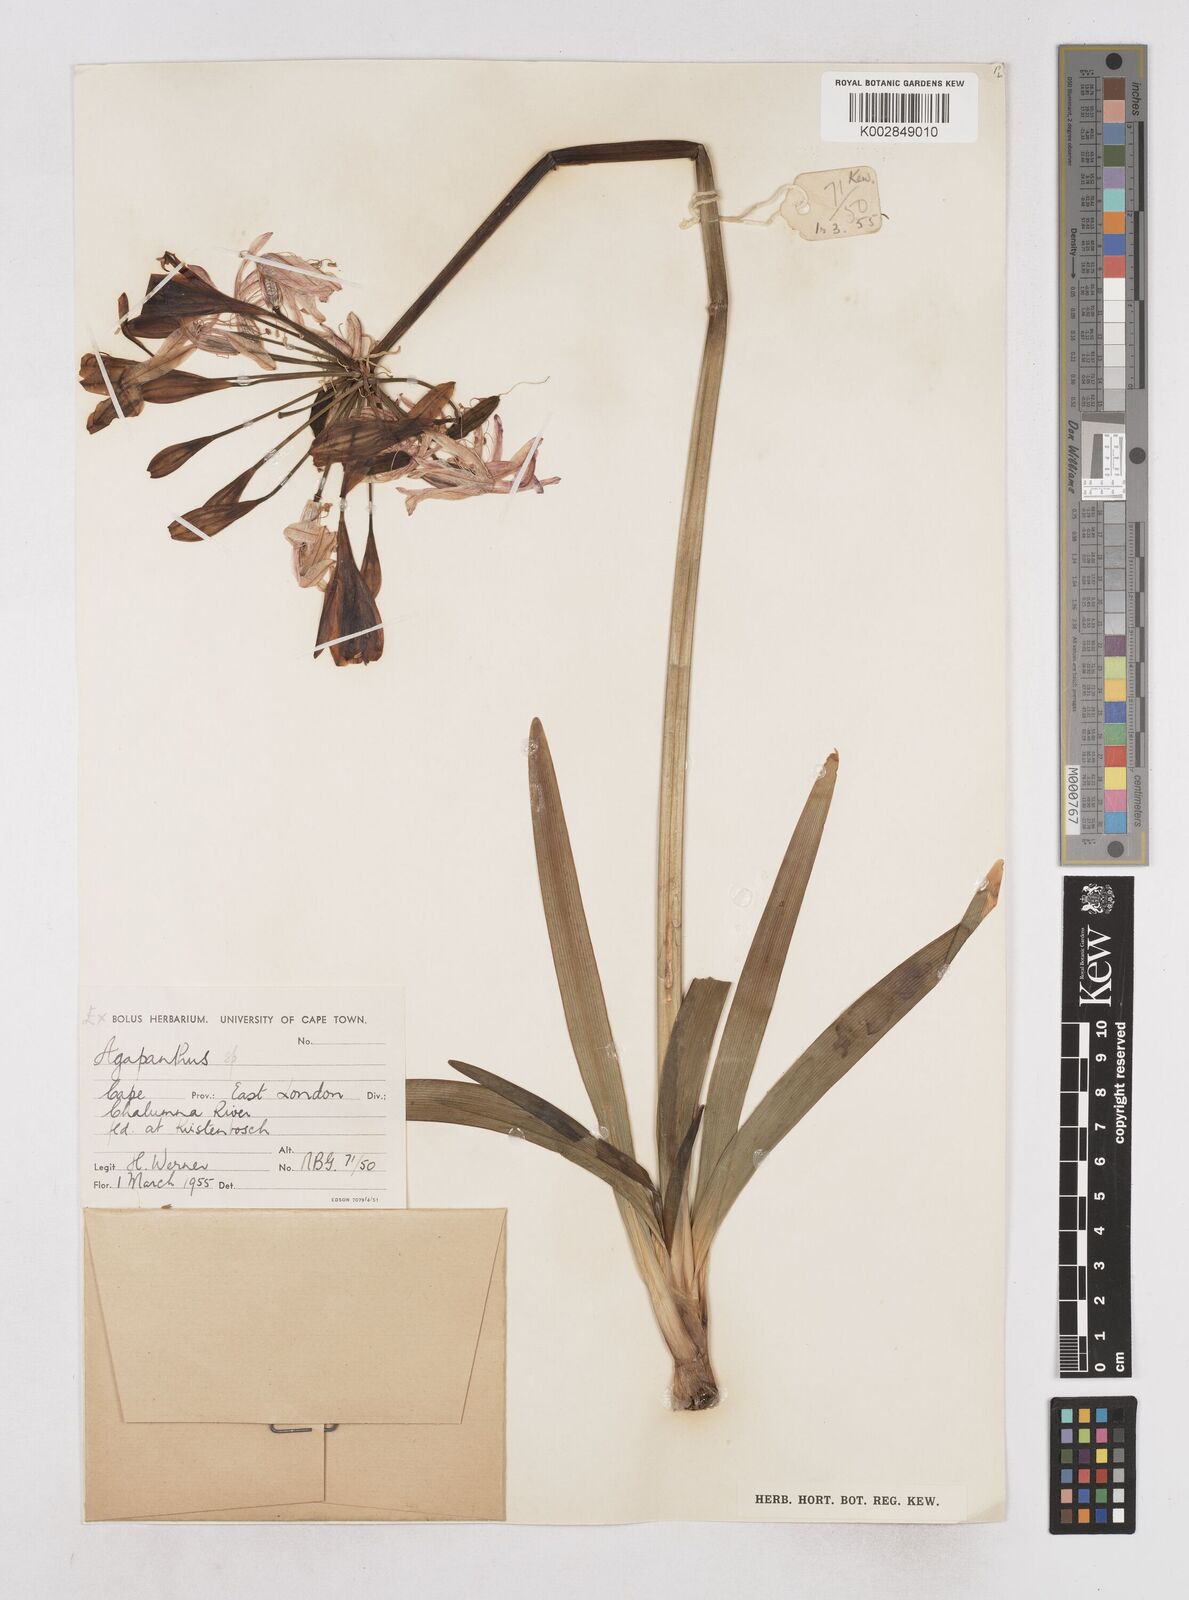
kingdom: Plantae
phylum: Tracheophyta
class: Liliopsida
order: Asparagales
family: Amaryllidaceae
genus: Agapanthus
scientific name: Agapanthus africanus
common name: Lily-of-the-nile
